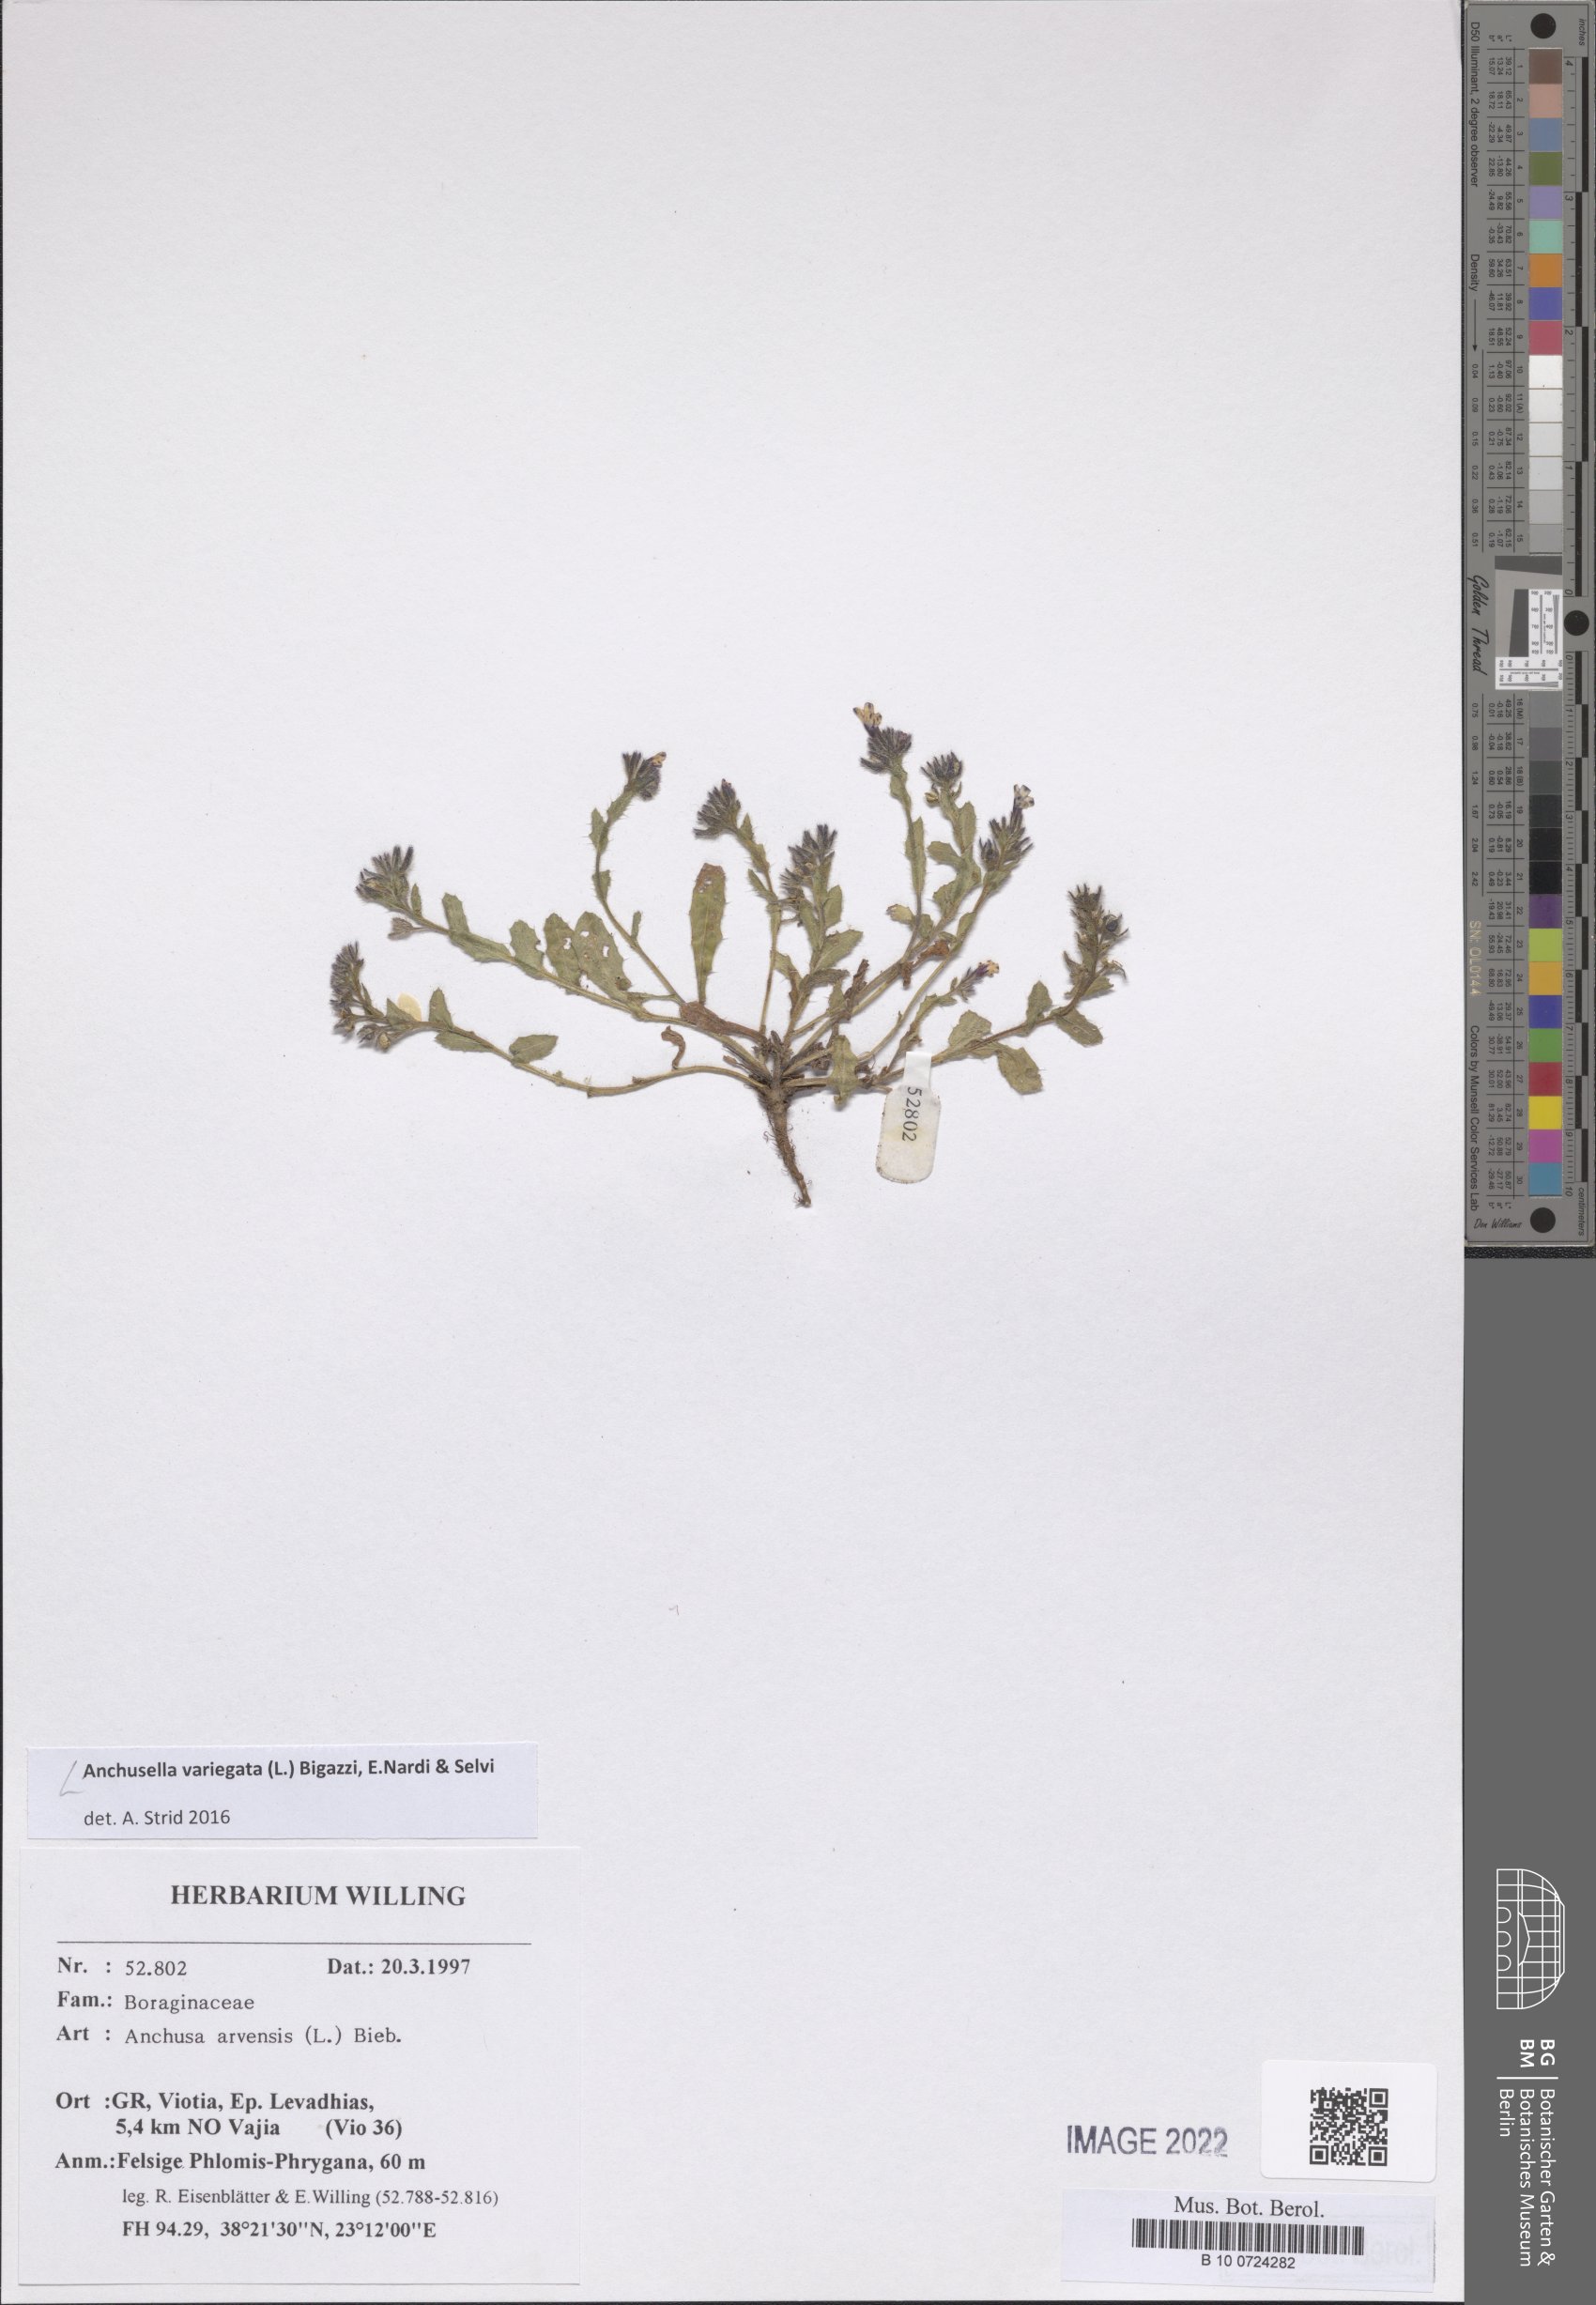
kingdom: Plantae
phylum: Tracheophyta
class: Magnoliopsida
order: Boraginales
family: Boraginaceae
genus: Anchusella
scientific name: Anchusella variegata
